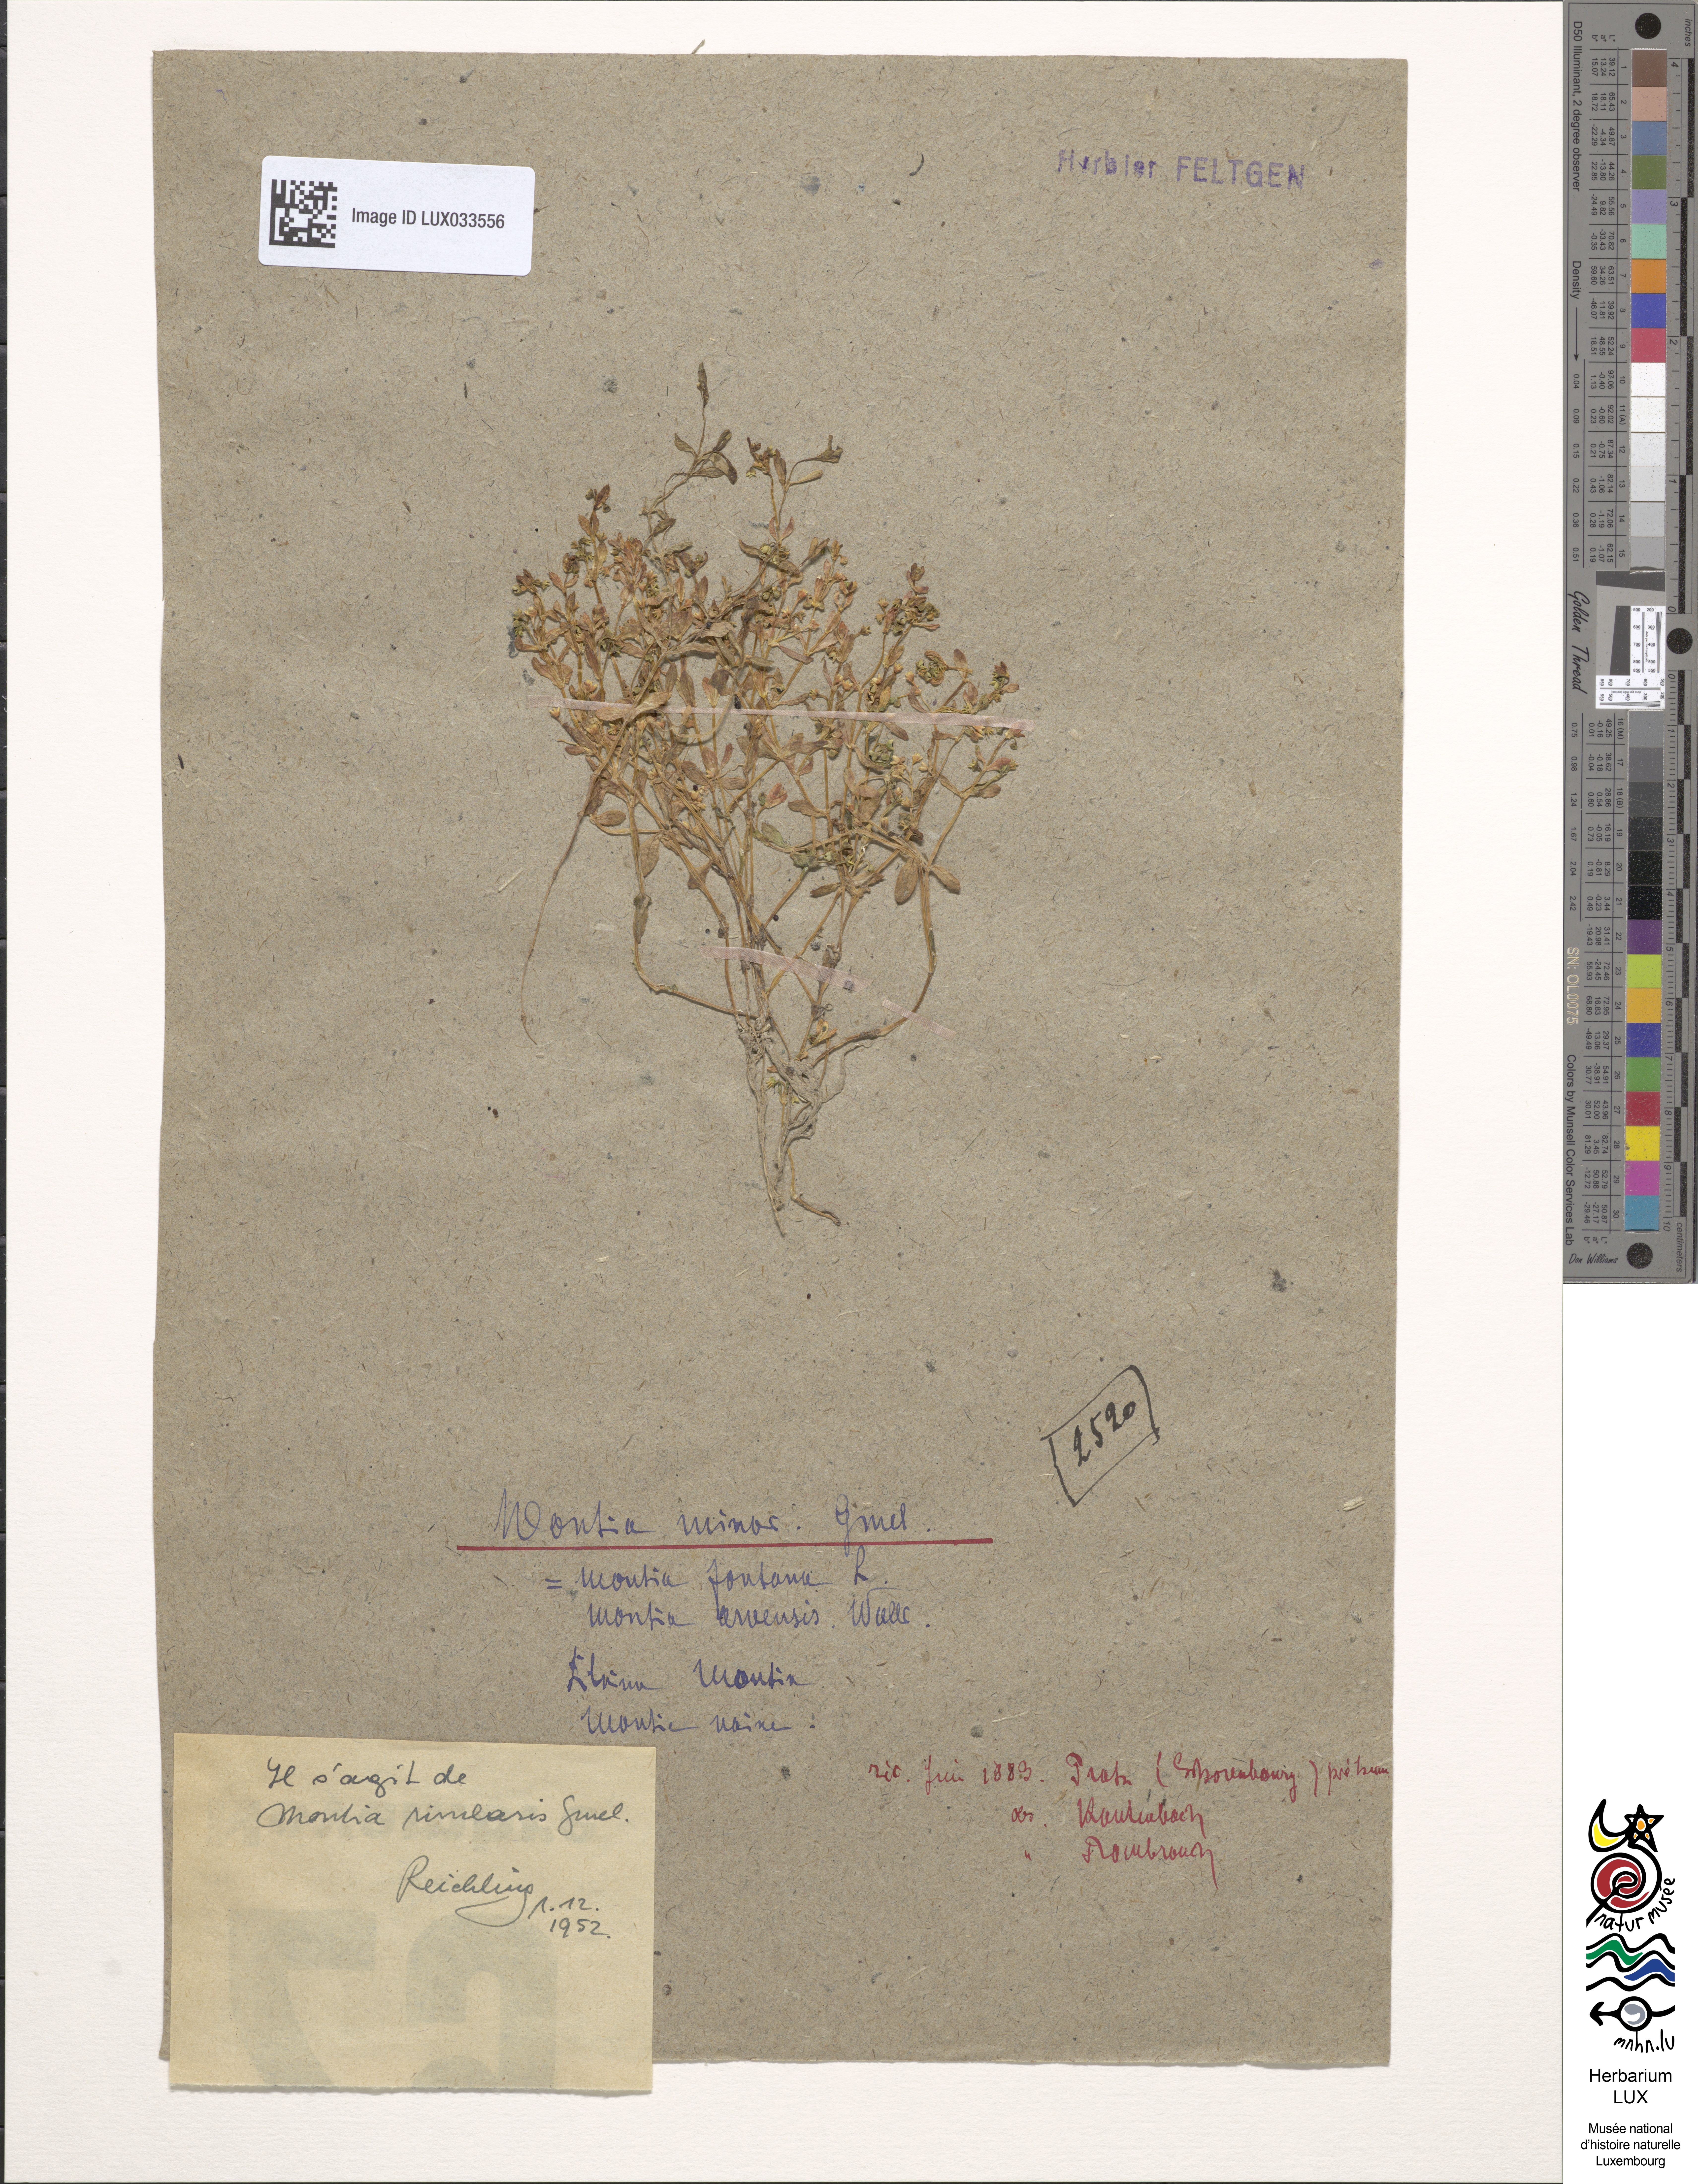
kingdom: Plantae
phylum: Tracheophyta
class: Magnoliopsida
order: Caryophyllales
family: Montiaceae
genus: Montia
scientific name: Montia arvensis
